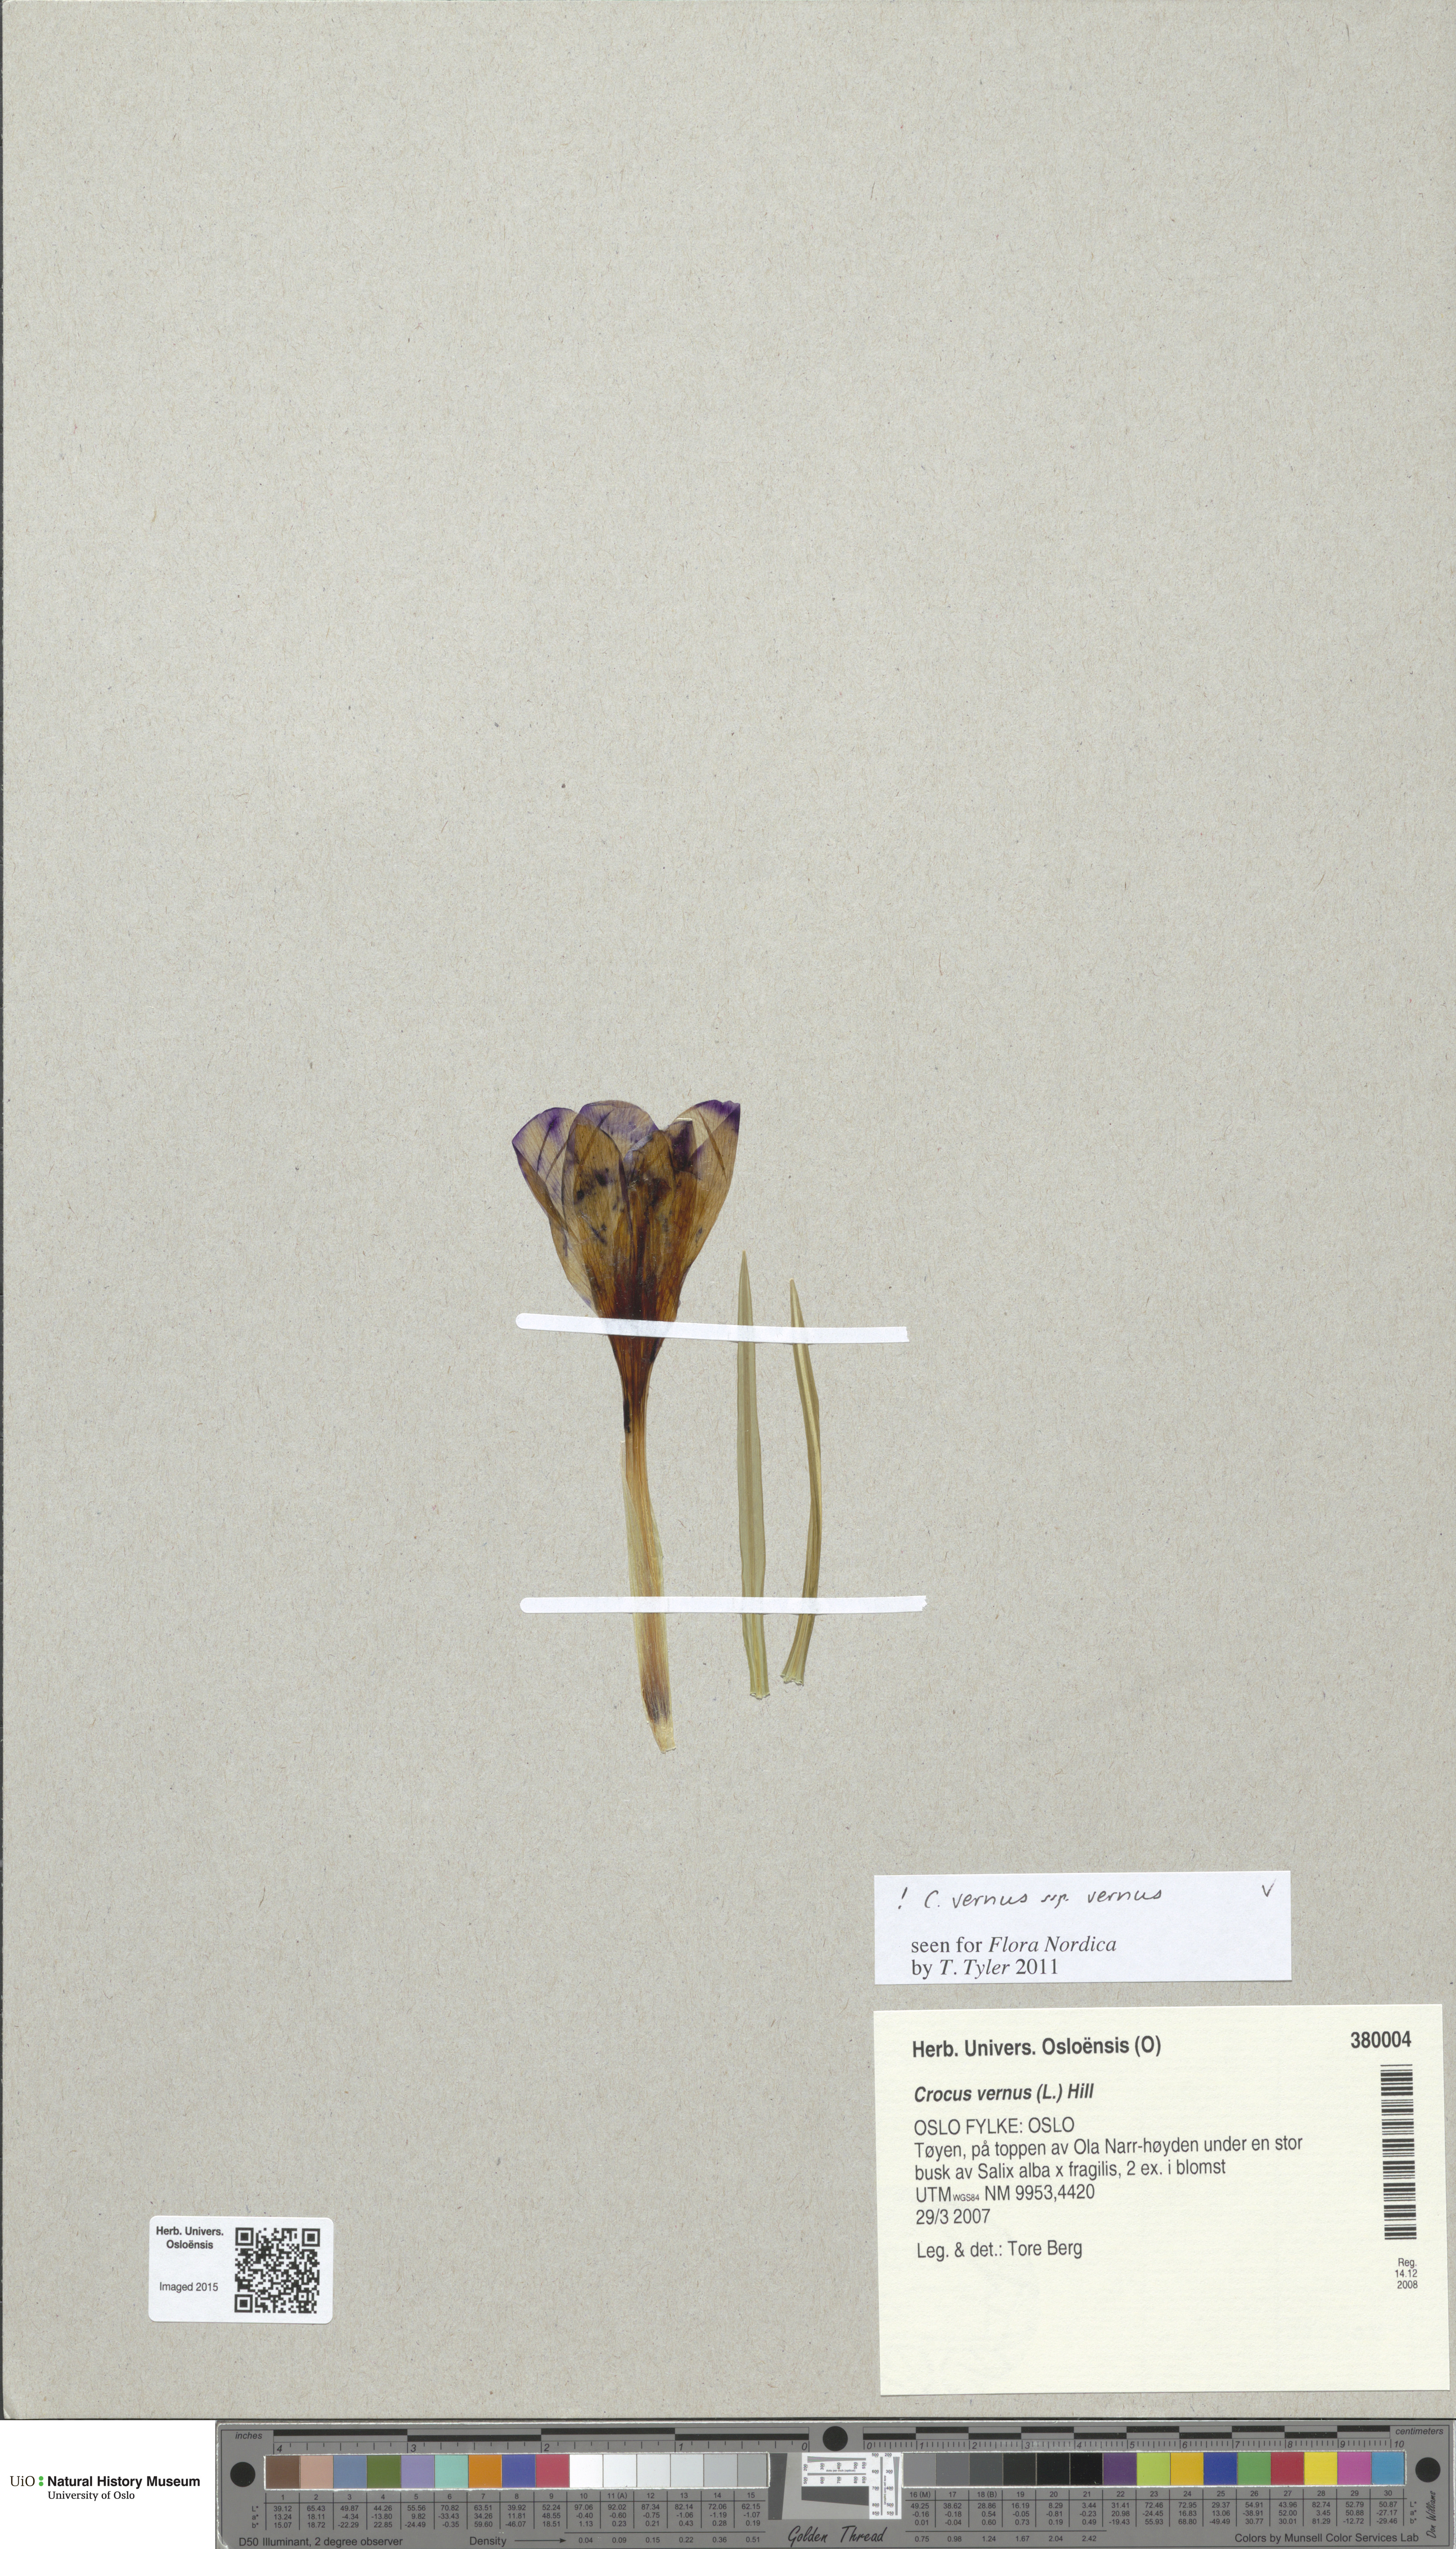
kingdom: Plantae
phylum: Tracheophyta
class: Liliopsida
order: Asparagales
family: Iridaceae
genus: Crocus
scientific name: Crocus vernus
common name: Spring crocus
